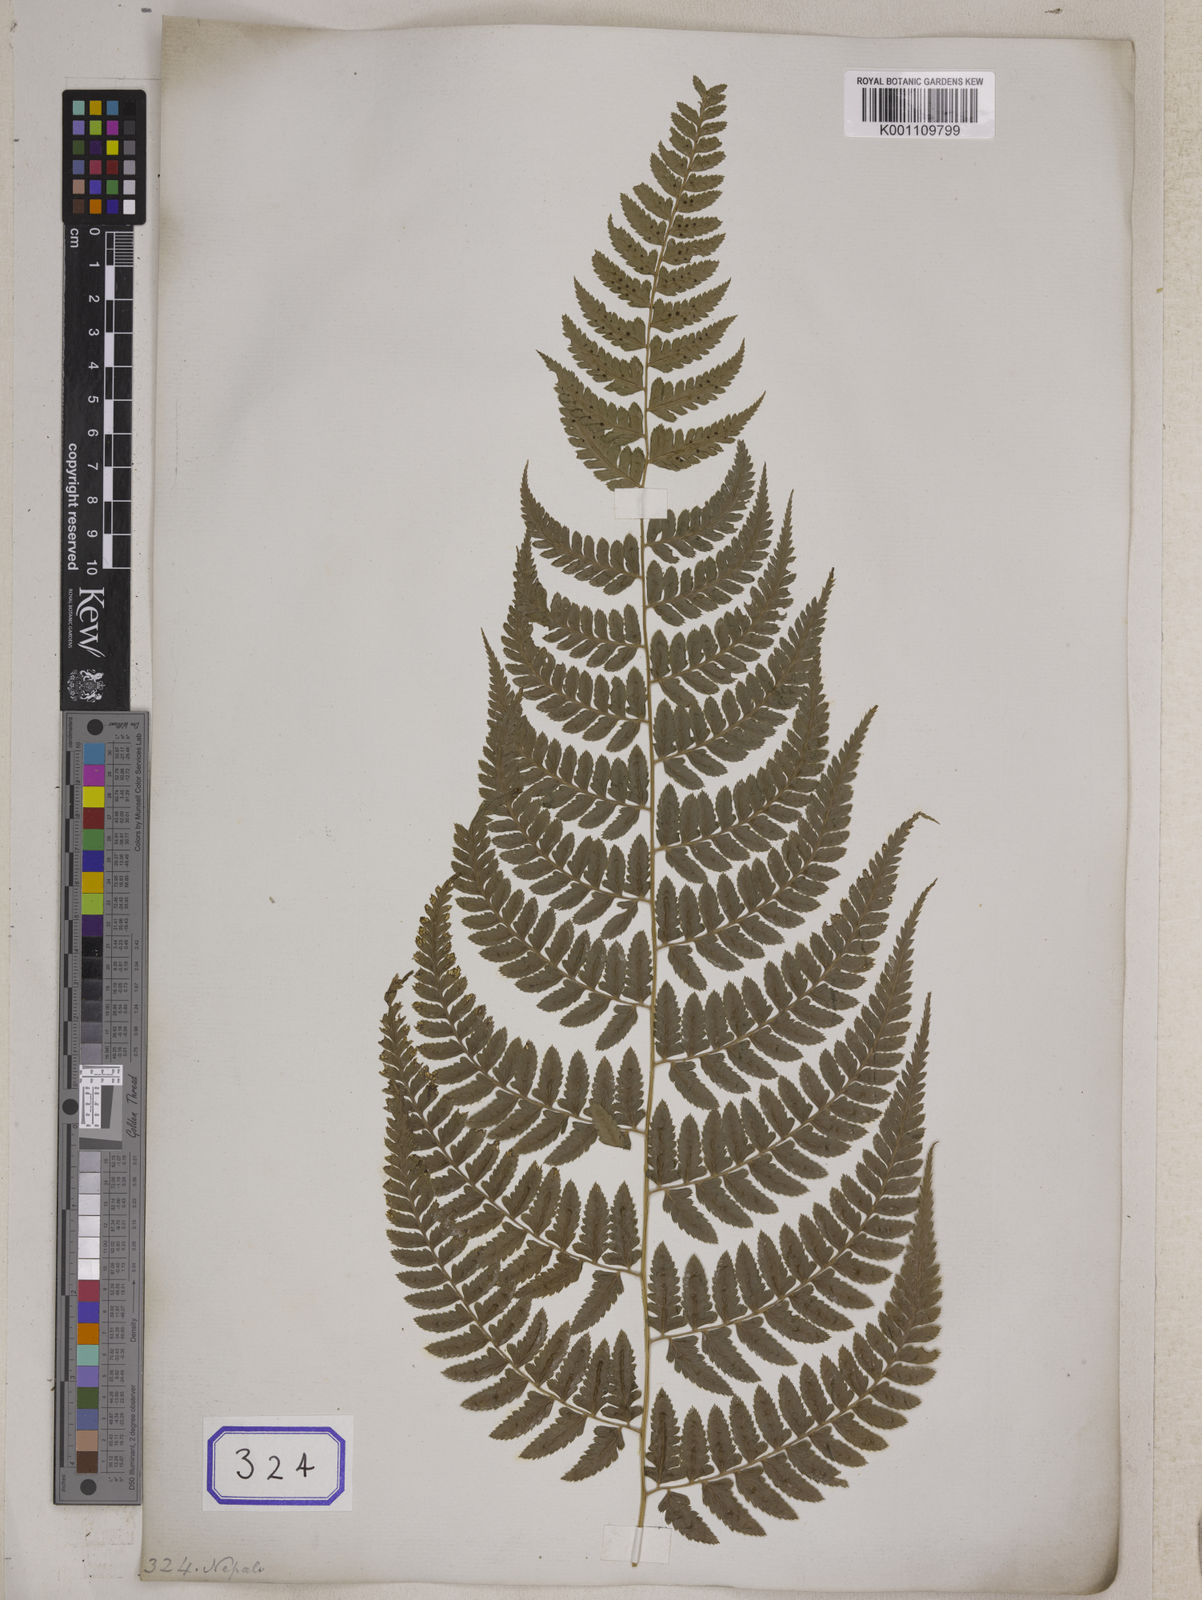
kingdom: Plantae
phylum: Tracheophyta
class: Polypodiopsida
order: Polypodiales
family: Athyriaceae
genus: Athyrium
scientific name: Athyrium drepanopteron
